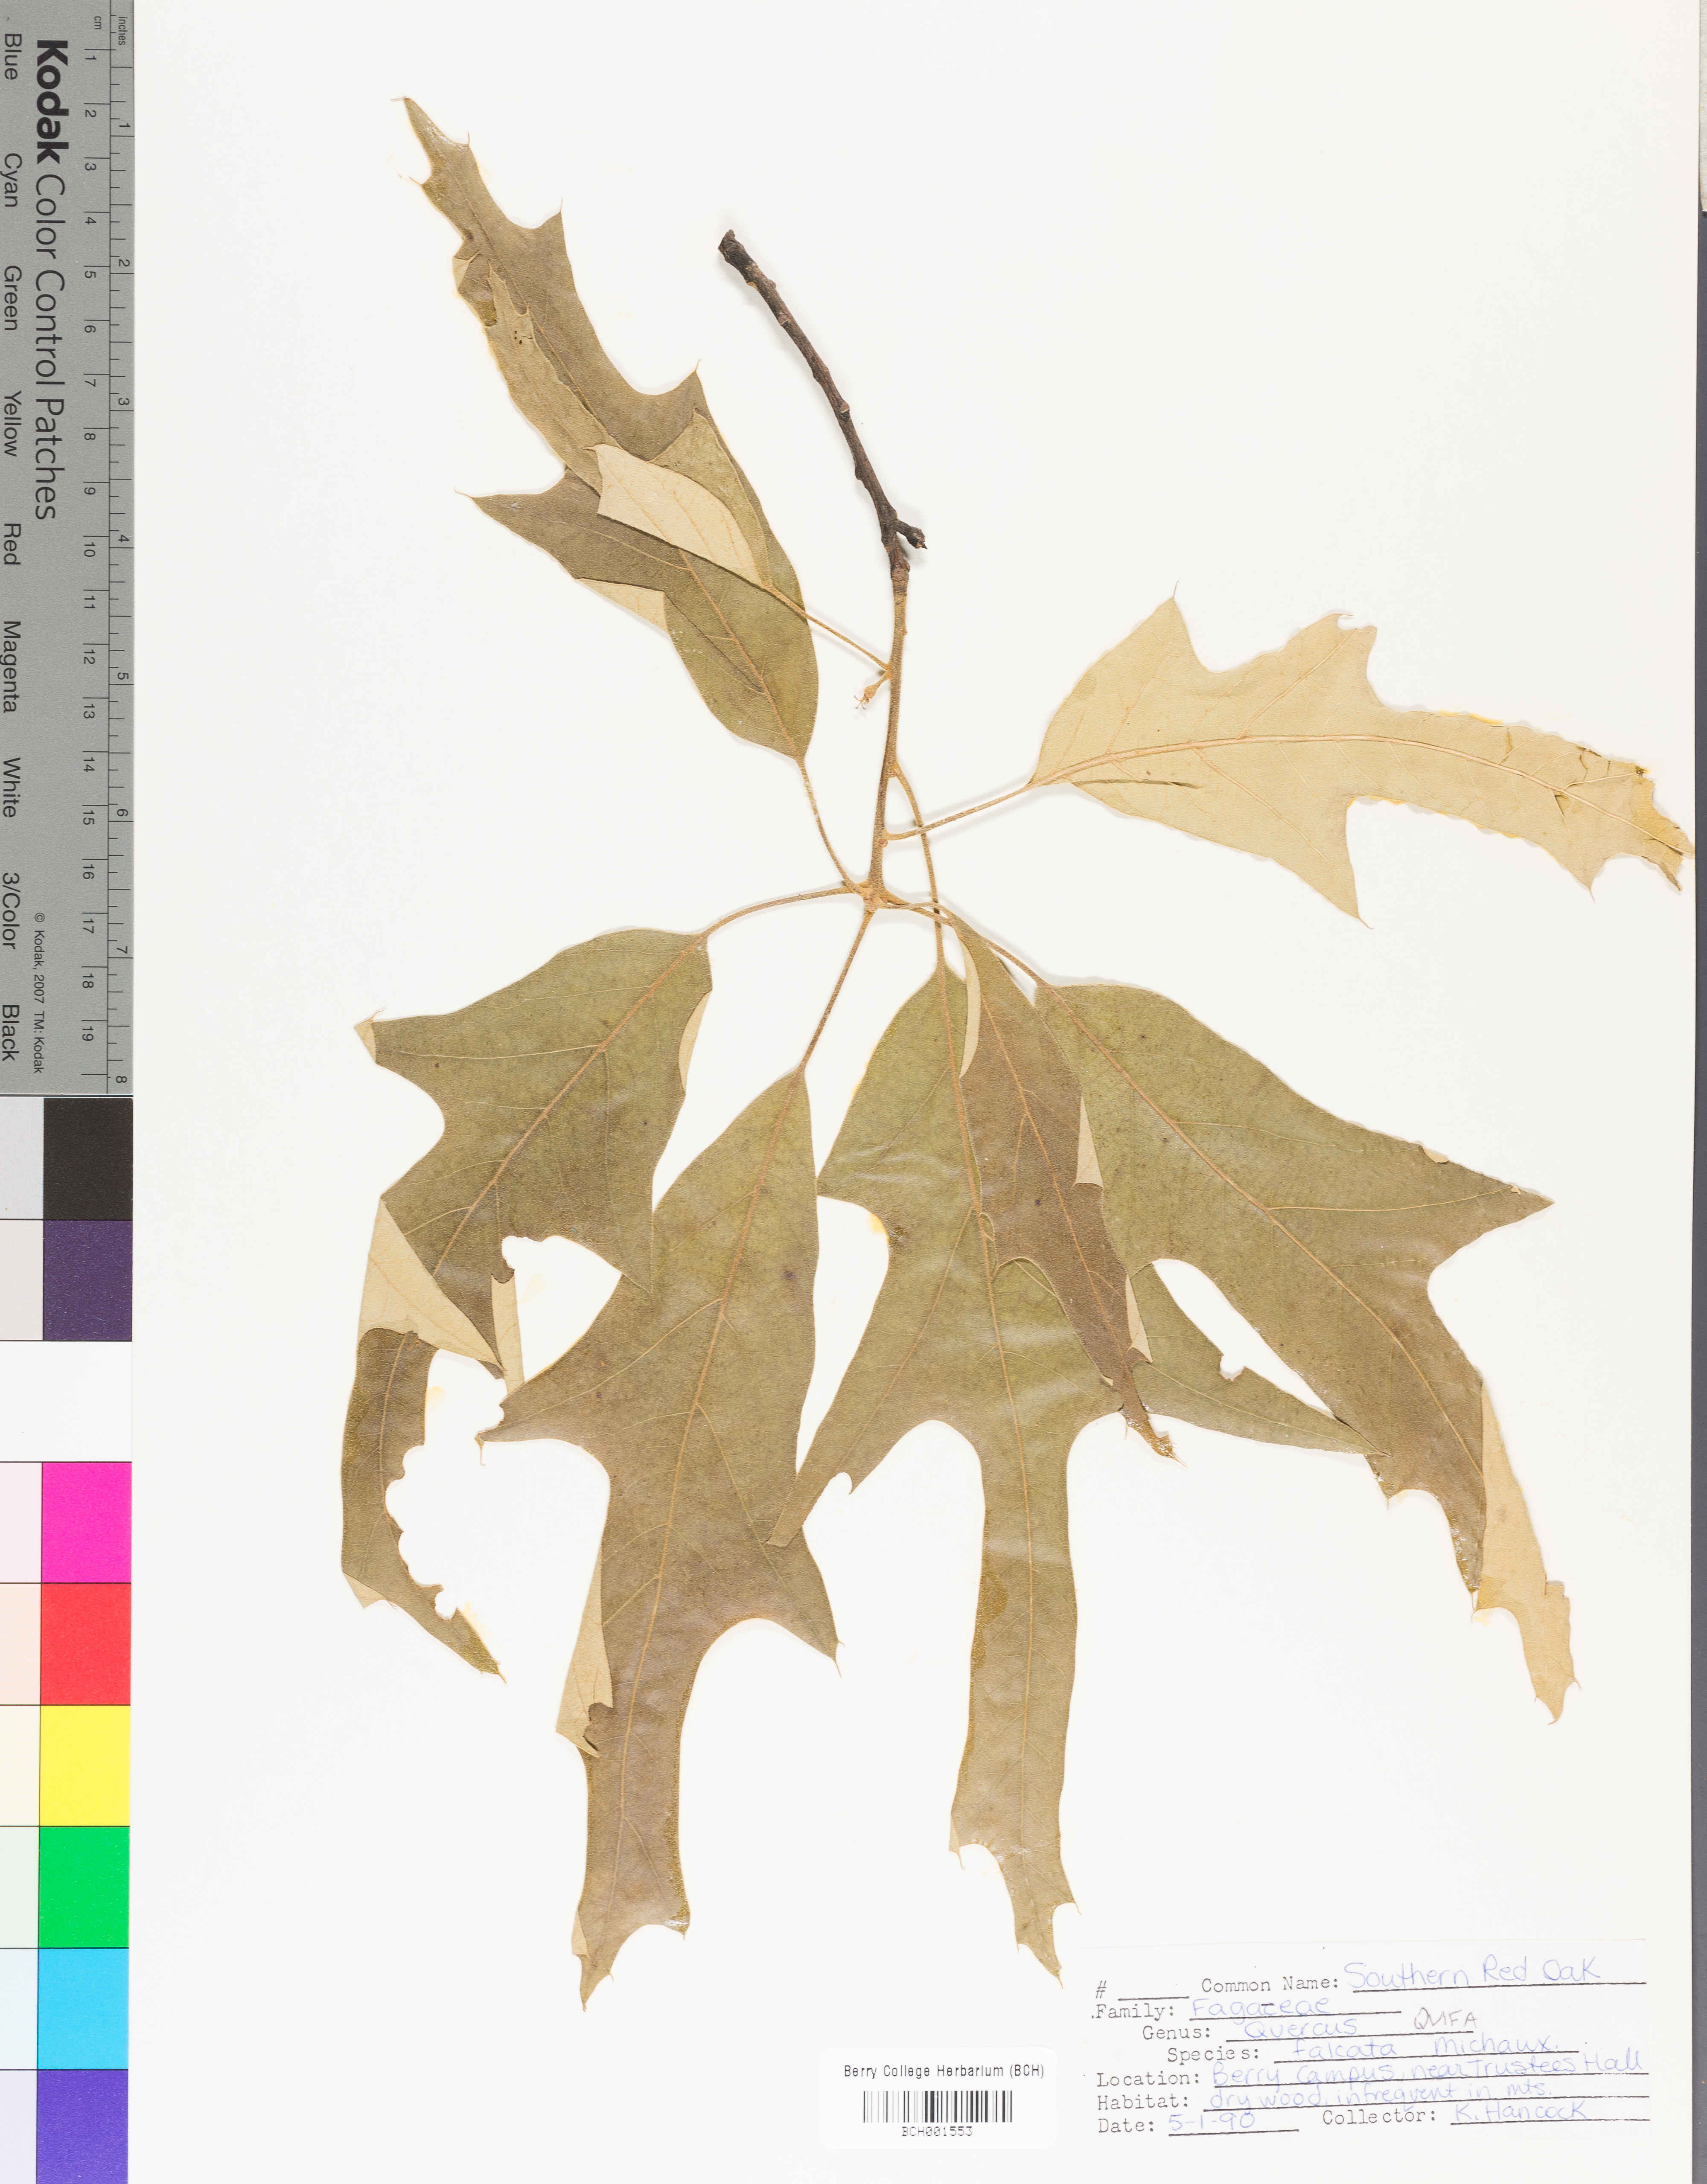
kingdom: Plantae
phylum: Tracheophyta
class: Magnoliopsida
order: Fagales
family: Fagaceae
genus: Quercus
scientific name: Quercus falcata
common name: Southern red oak
